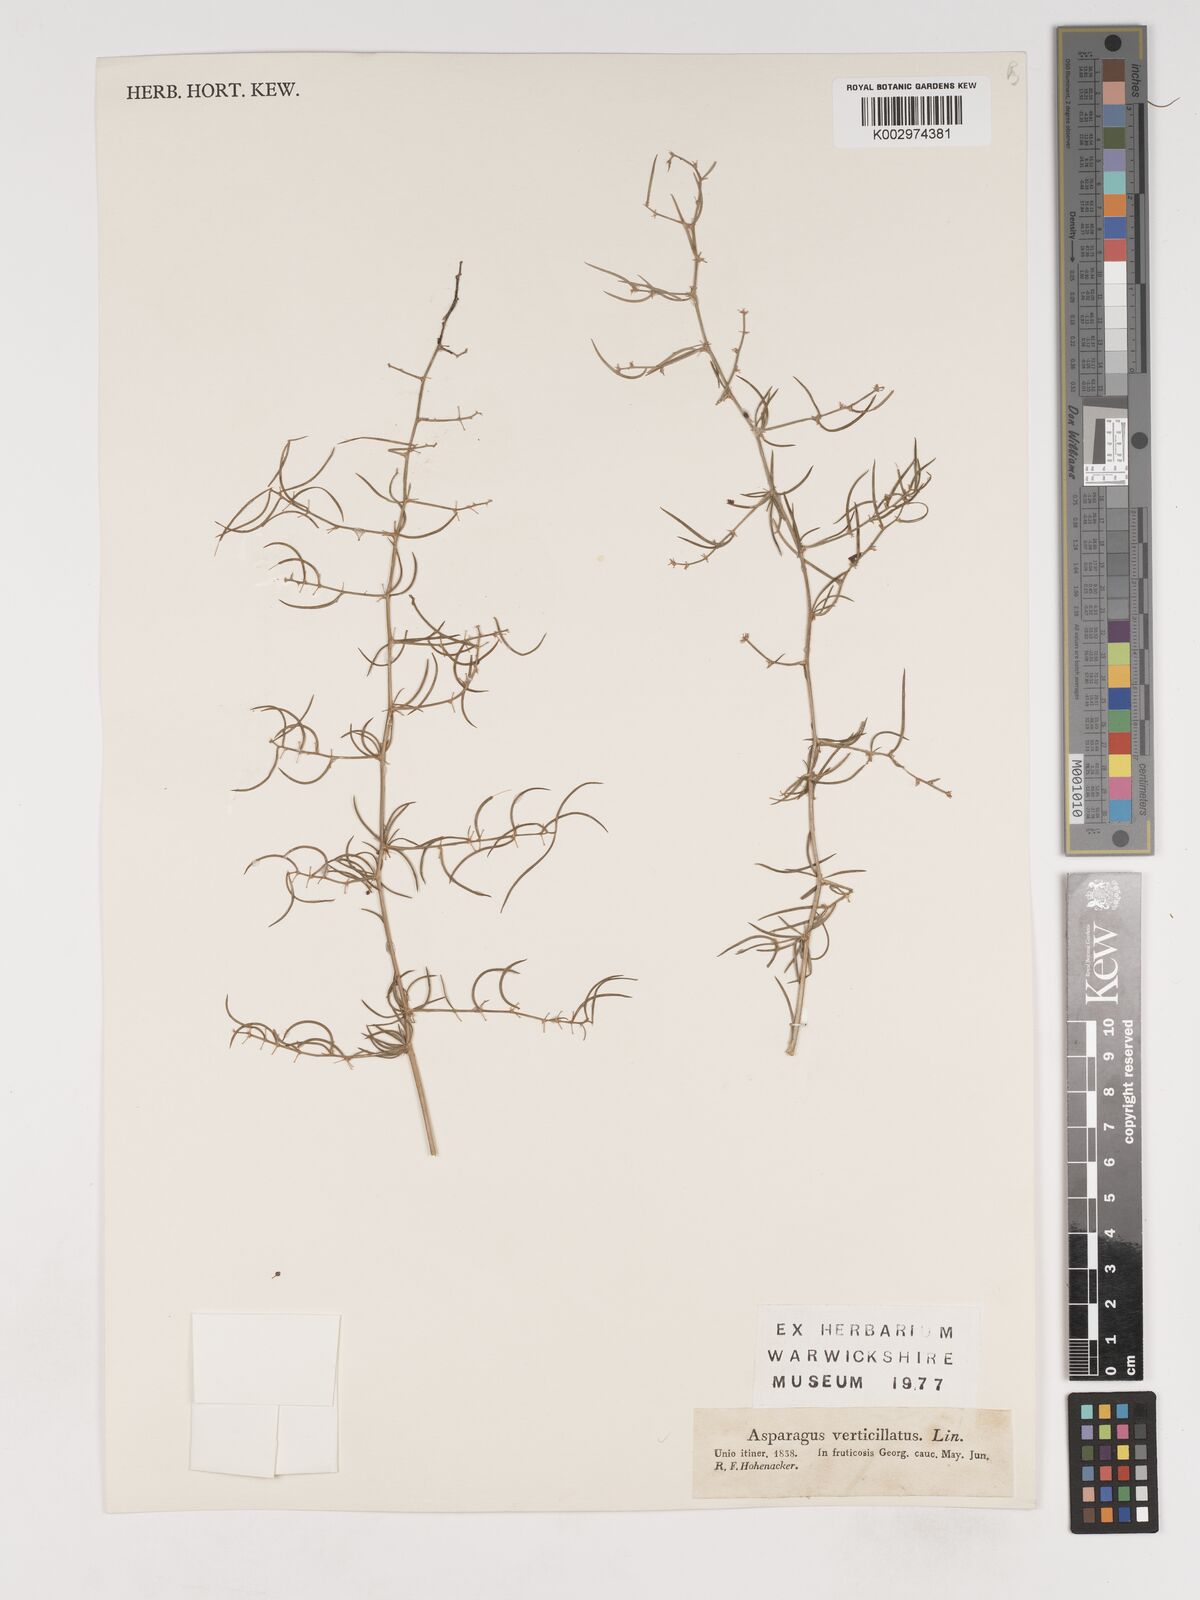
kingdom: Plantae
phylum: Tracheophyta
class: Liliopsida
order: Asparagales
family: Asparagaceae
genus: Asparagus
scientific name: Asparagus verticillatus
